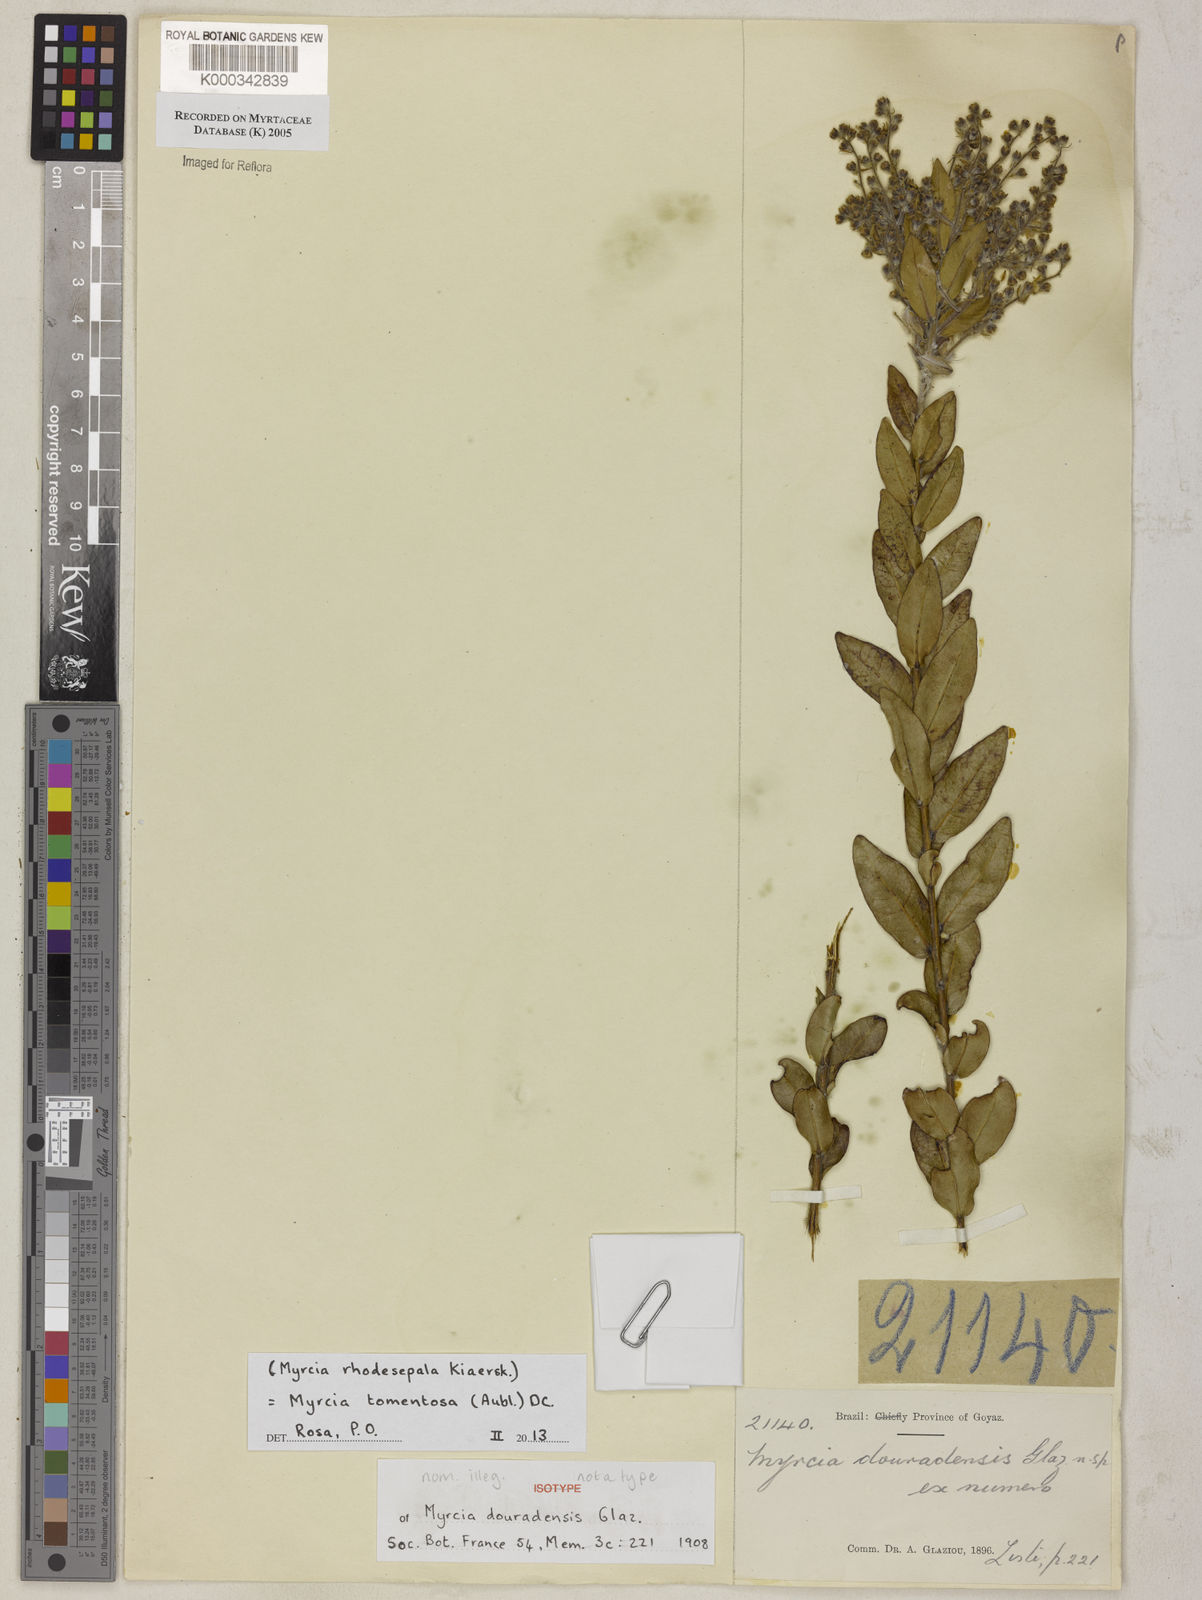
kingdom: Plantae
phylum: Tracheophyta
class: Magnoliopsida
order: Myrtales
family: Myrtaceae
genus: Myrcia
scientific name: Myrcia
